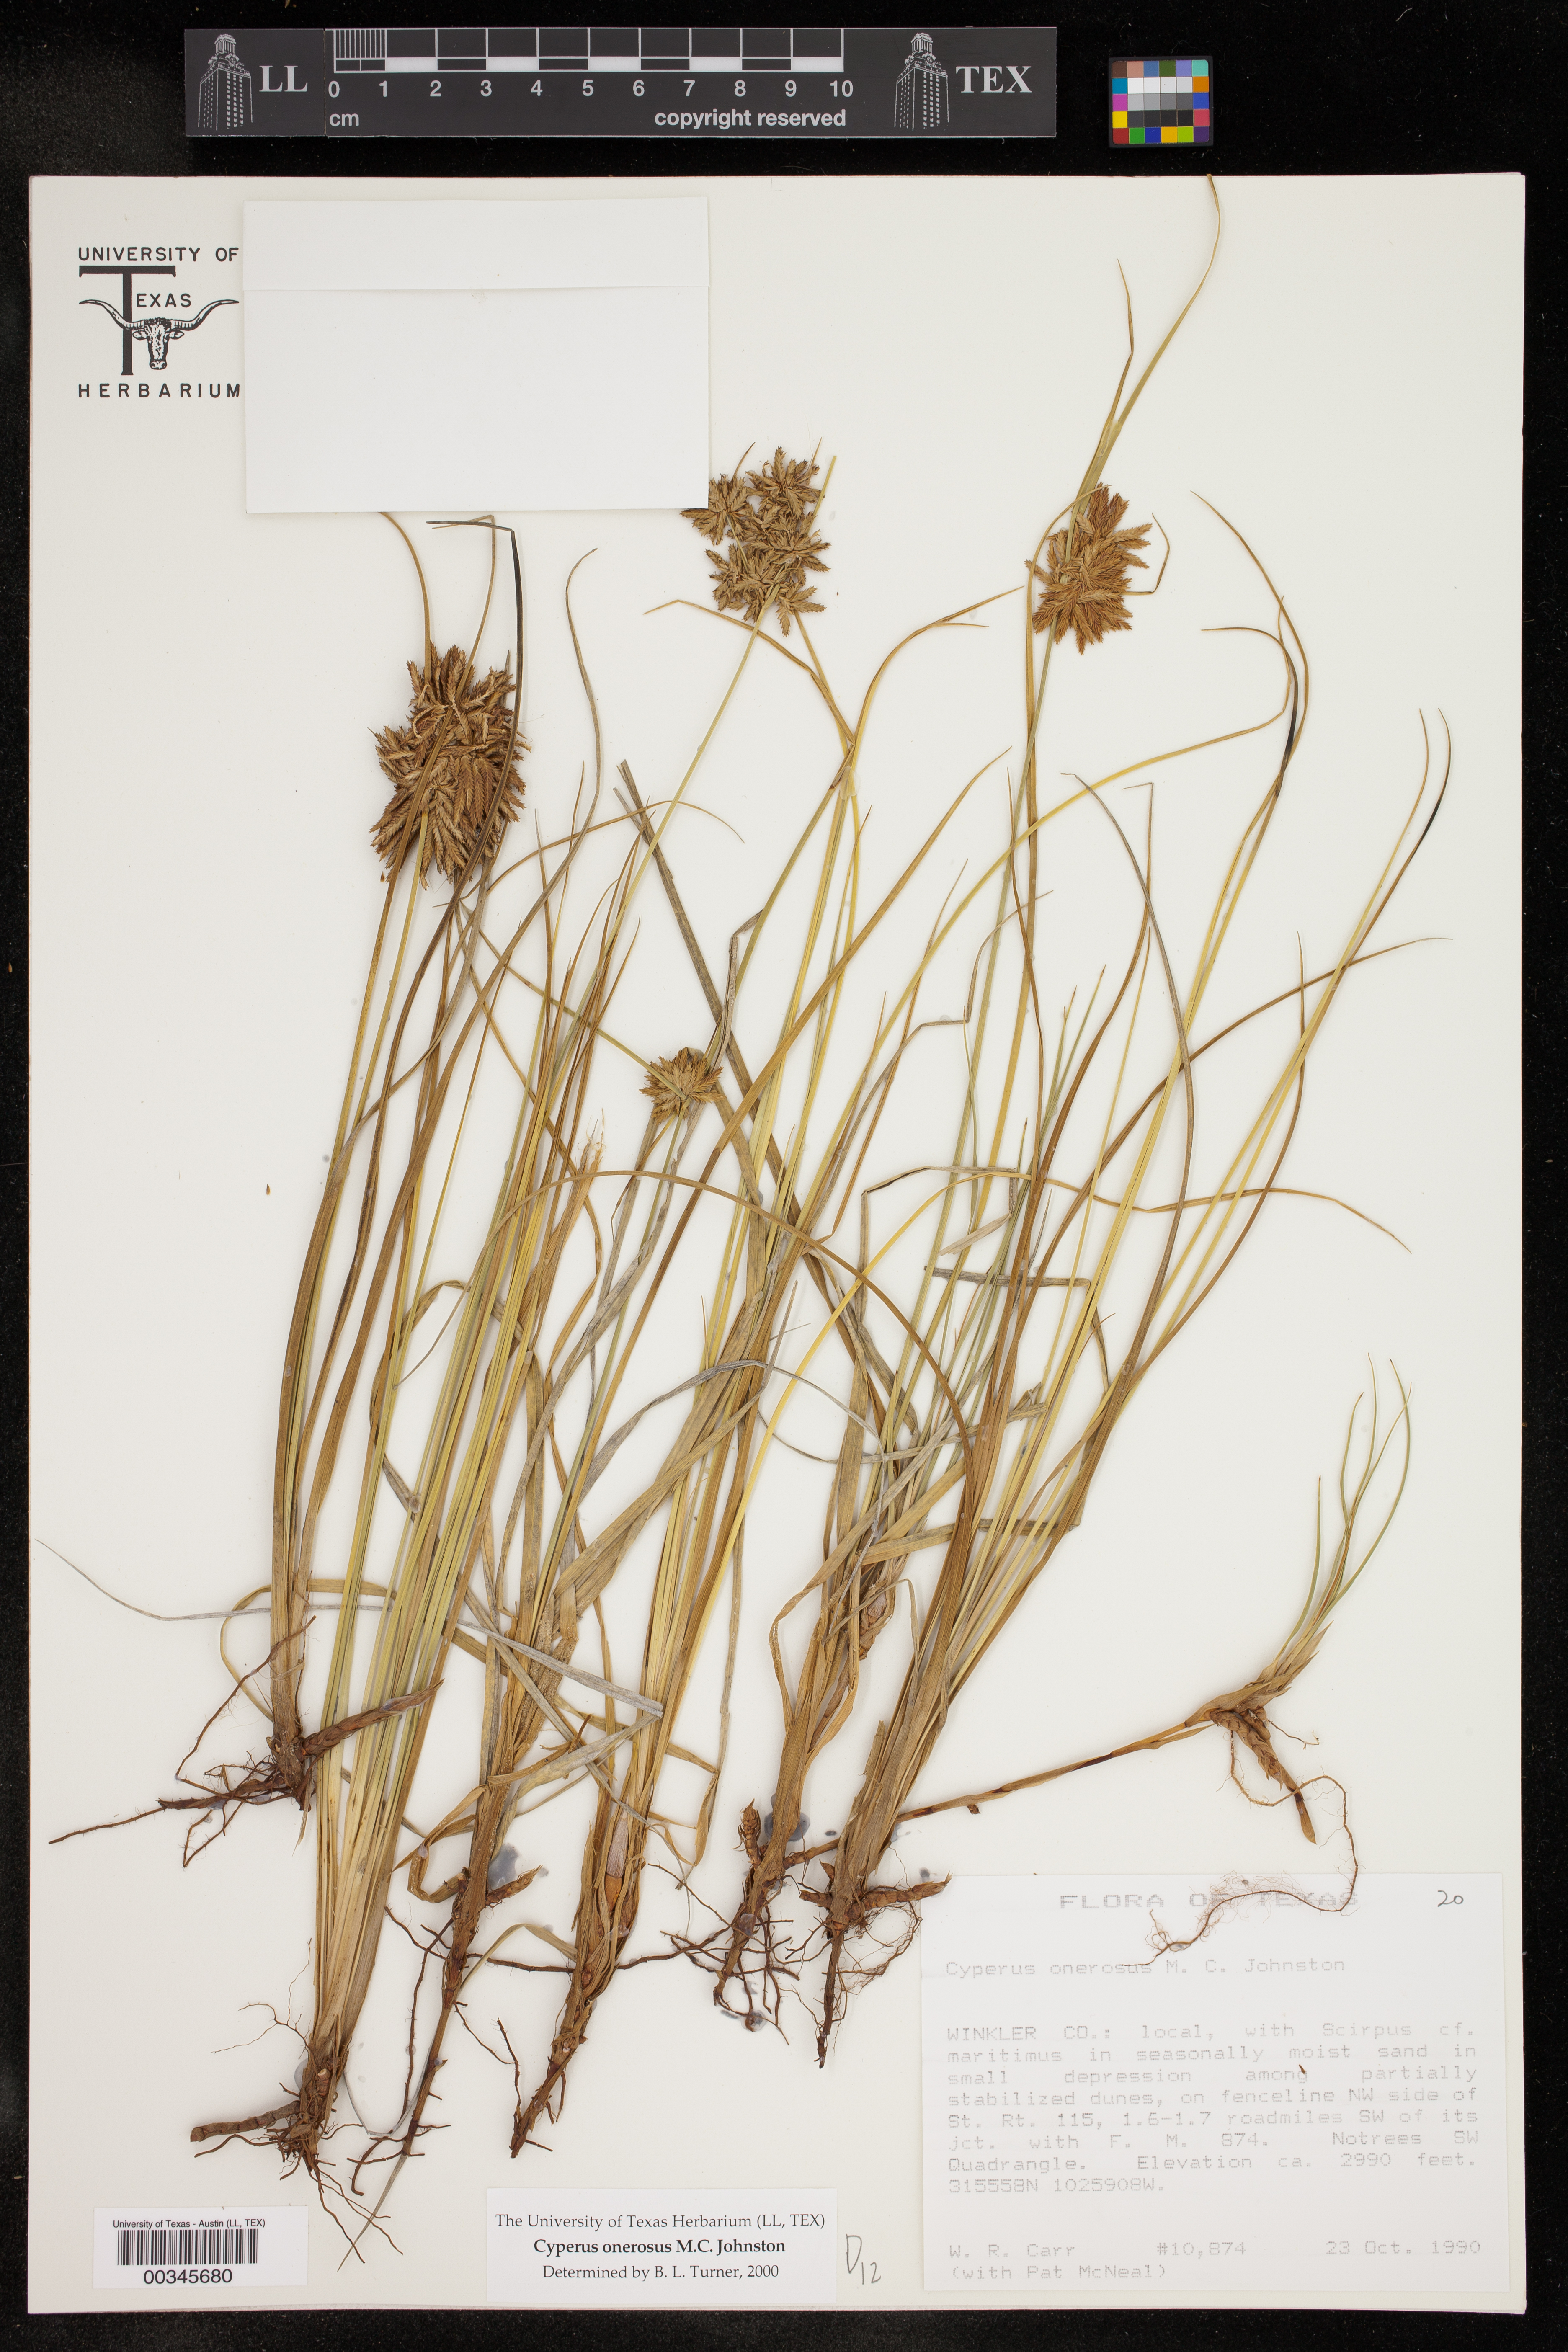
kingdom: Plantae
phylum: Tracheophyta
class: Liliopsida
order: Poales
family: Cyperaceae
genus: Cyperus
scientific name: Cyperus onerosus
